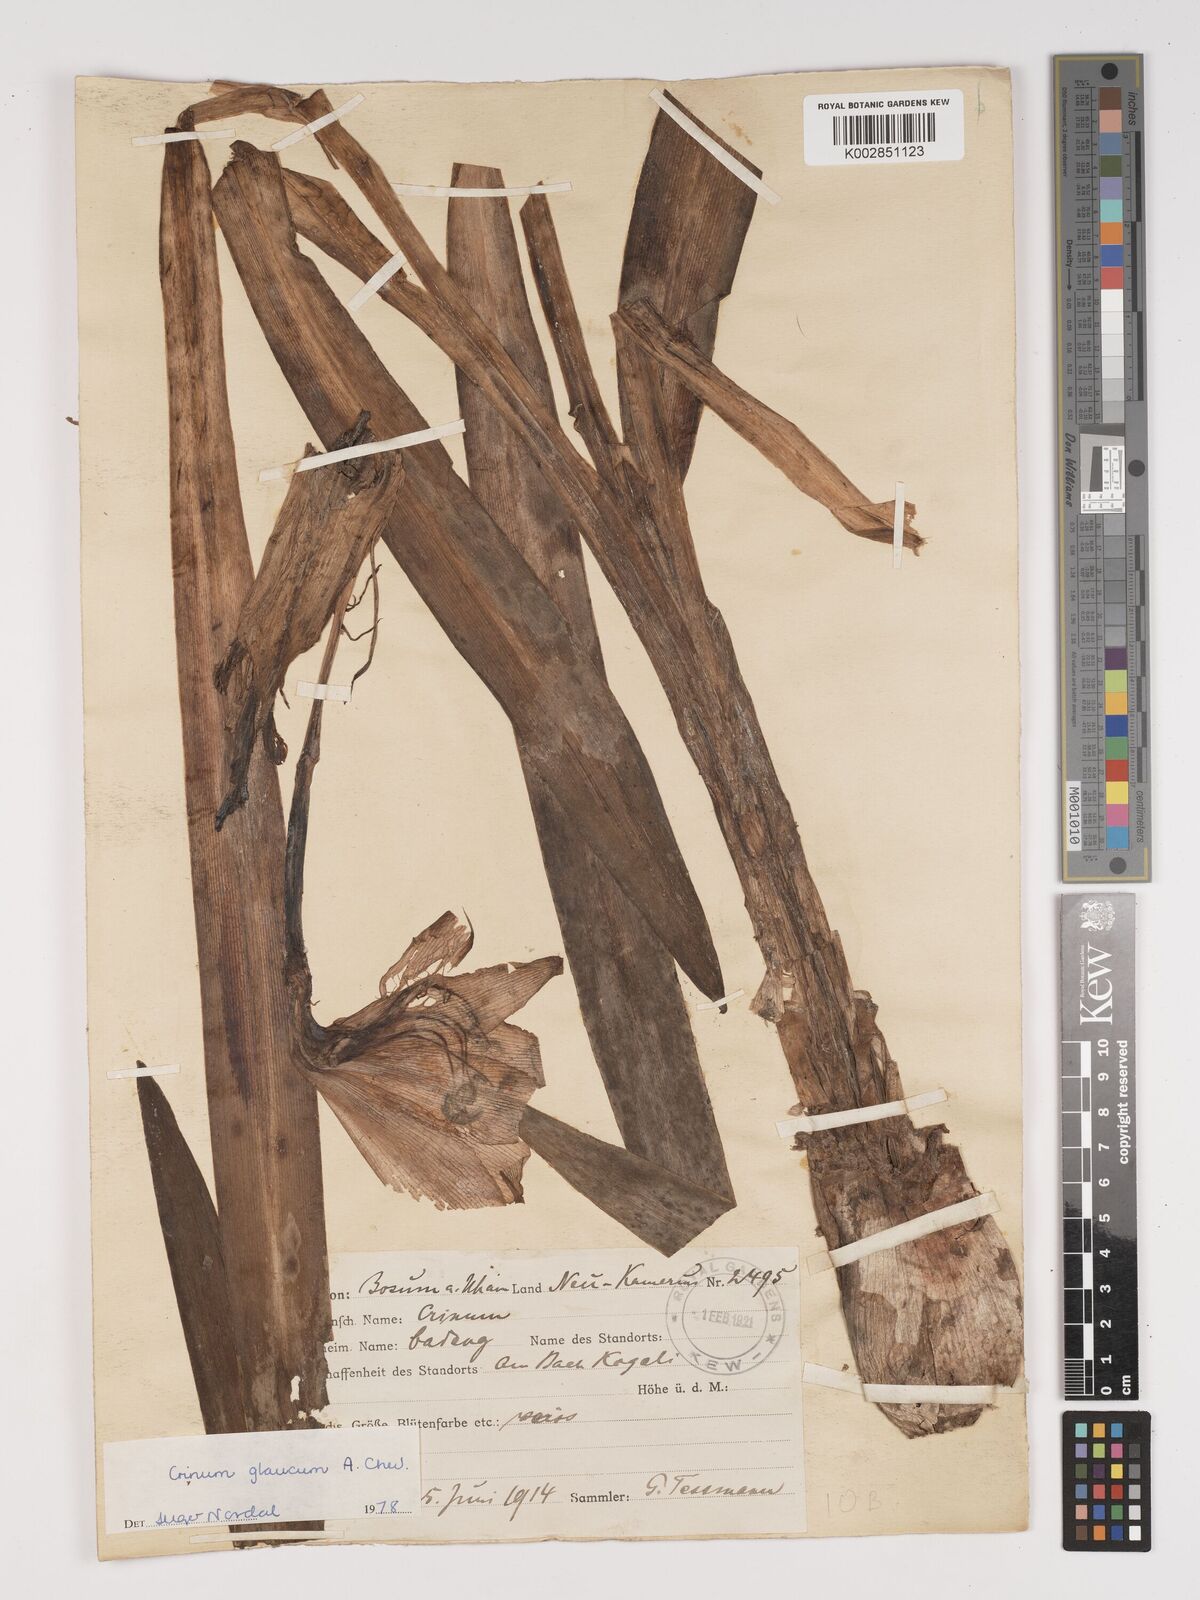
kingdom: Plantae
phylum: Tracheophyta
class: Liliopsida
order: Asparagales
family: Amaryllidaceae
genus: Crinum
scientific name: Crinum jagus
